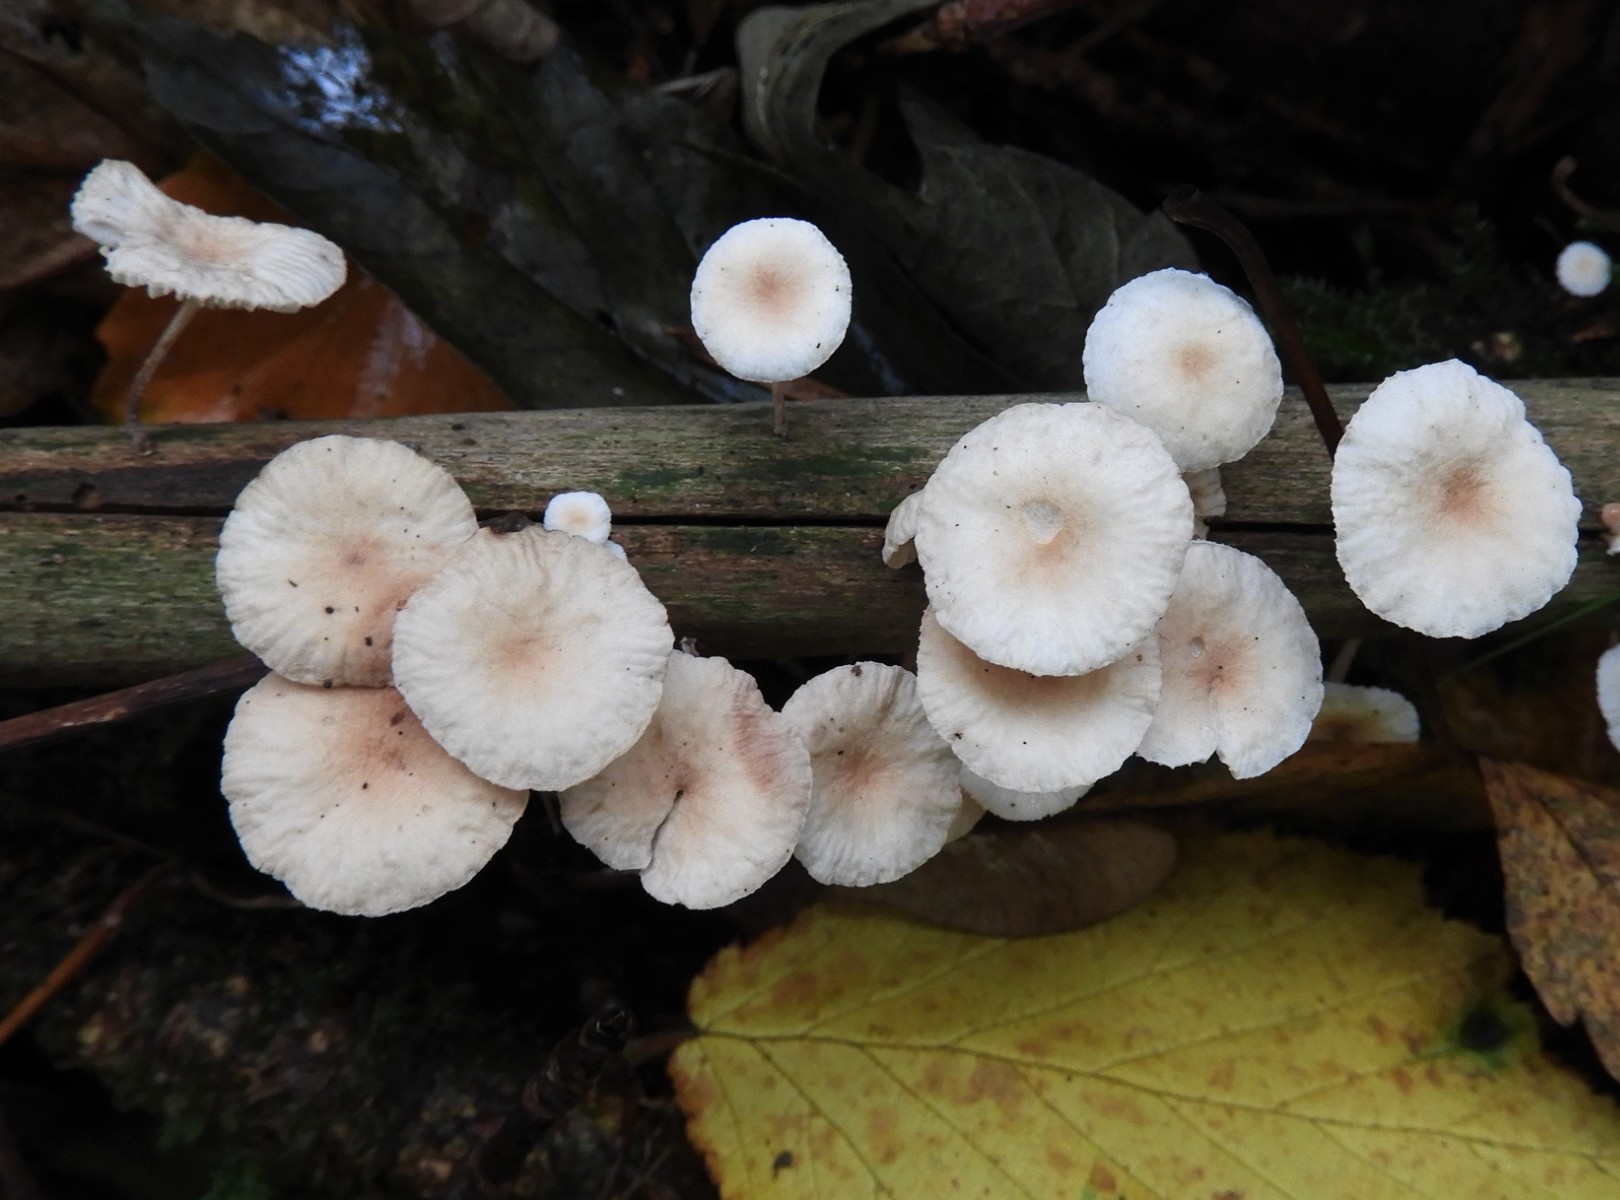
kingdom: Fungi
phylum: Basidiomycota
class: Agaricomycetes
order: Agaricales
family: Omphalotaceae
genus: Collybiopsis
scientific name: Collybiopsis ramealis
